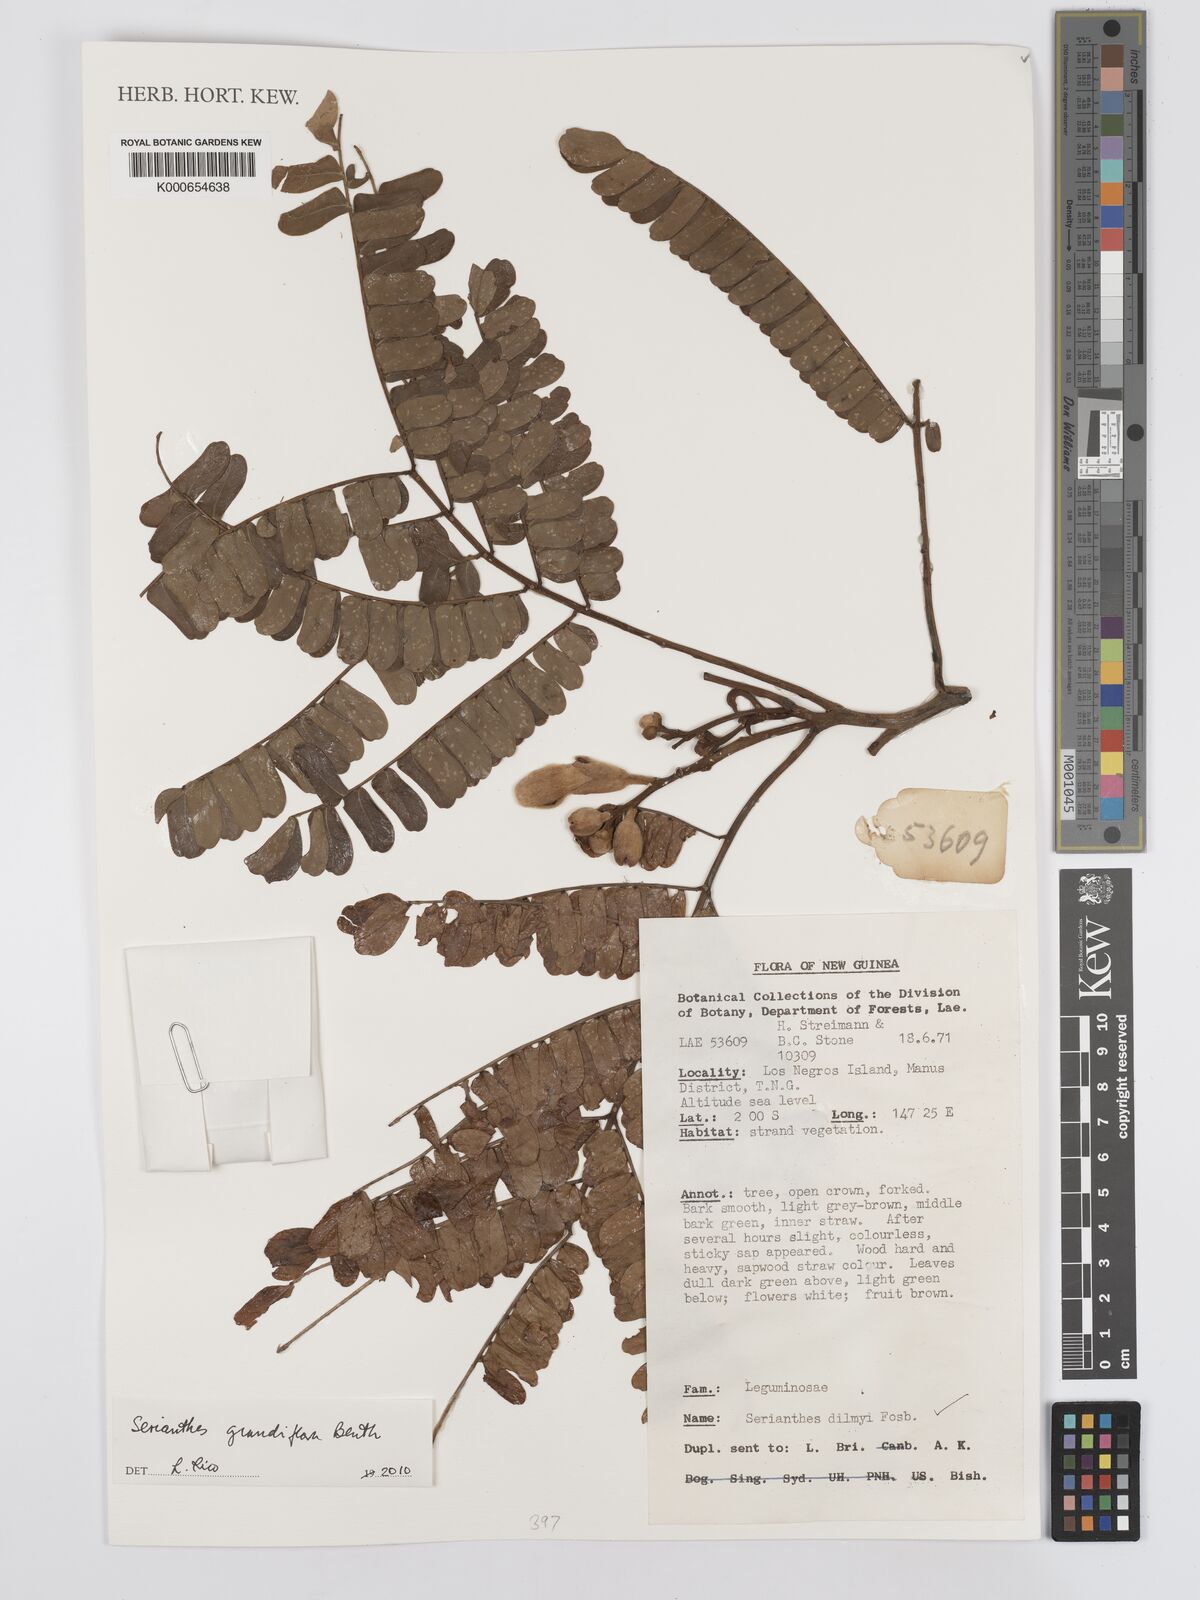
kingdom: Plantae
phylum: Tracheophyta
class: Magnoliopsida
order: Fabales
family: Fabaceae
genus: Serianthes
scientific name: Serianthes grandiflora
